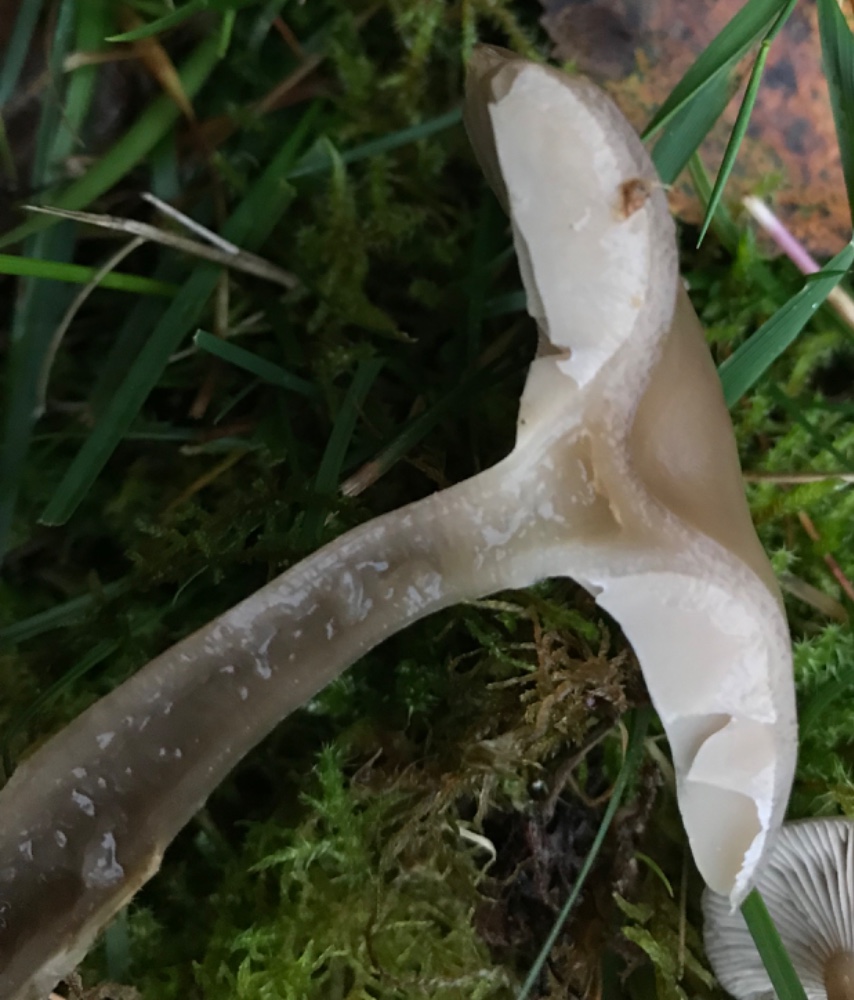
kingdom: Fungi
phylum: Basidiomycota
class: Agaricomycetes
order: Agaricales
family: Tricholomataceae
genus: Clitocybe
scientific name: Clitocybe metachroa
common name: grå tragthat
